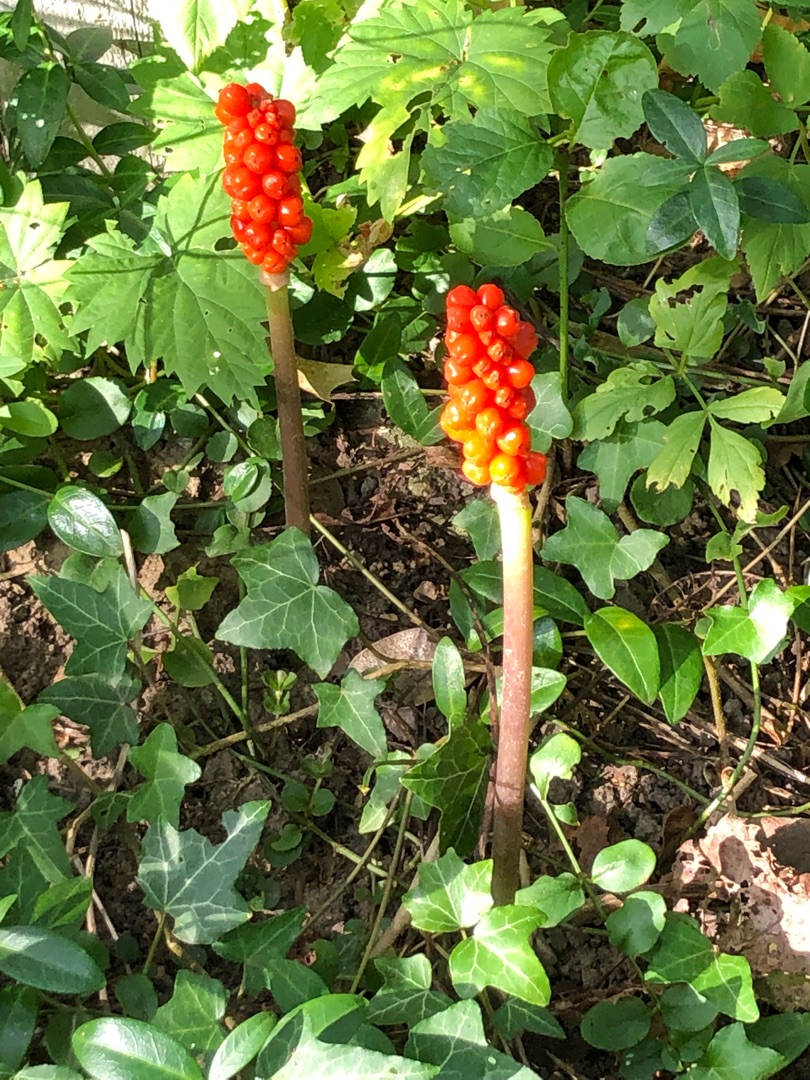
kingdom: Plantae
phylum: Tracheophyta
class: Liliopsida
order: Alismatales
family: Araceae
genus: Arum
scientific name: Arum
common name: Arumslægten
